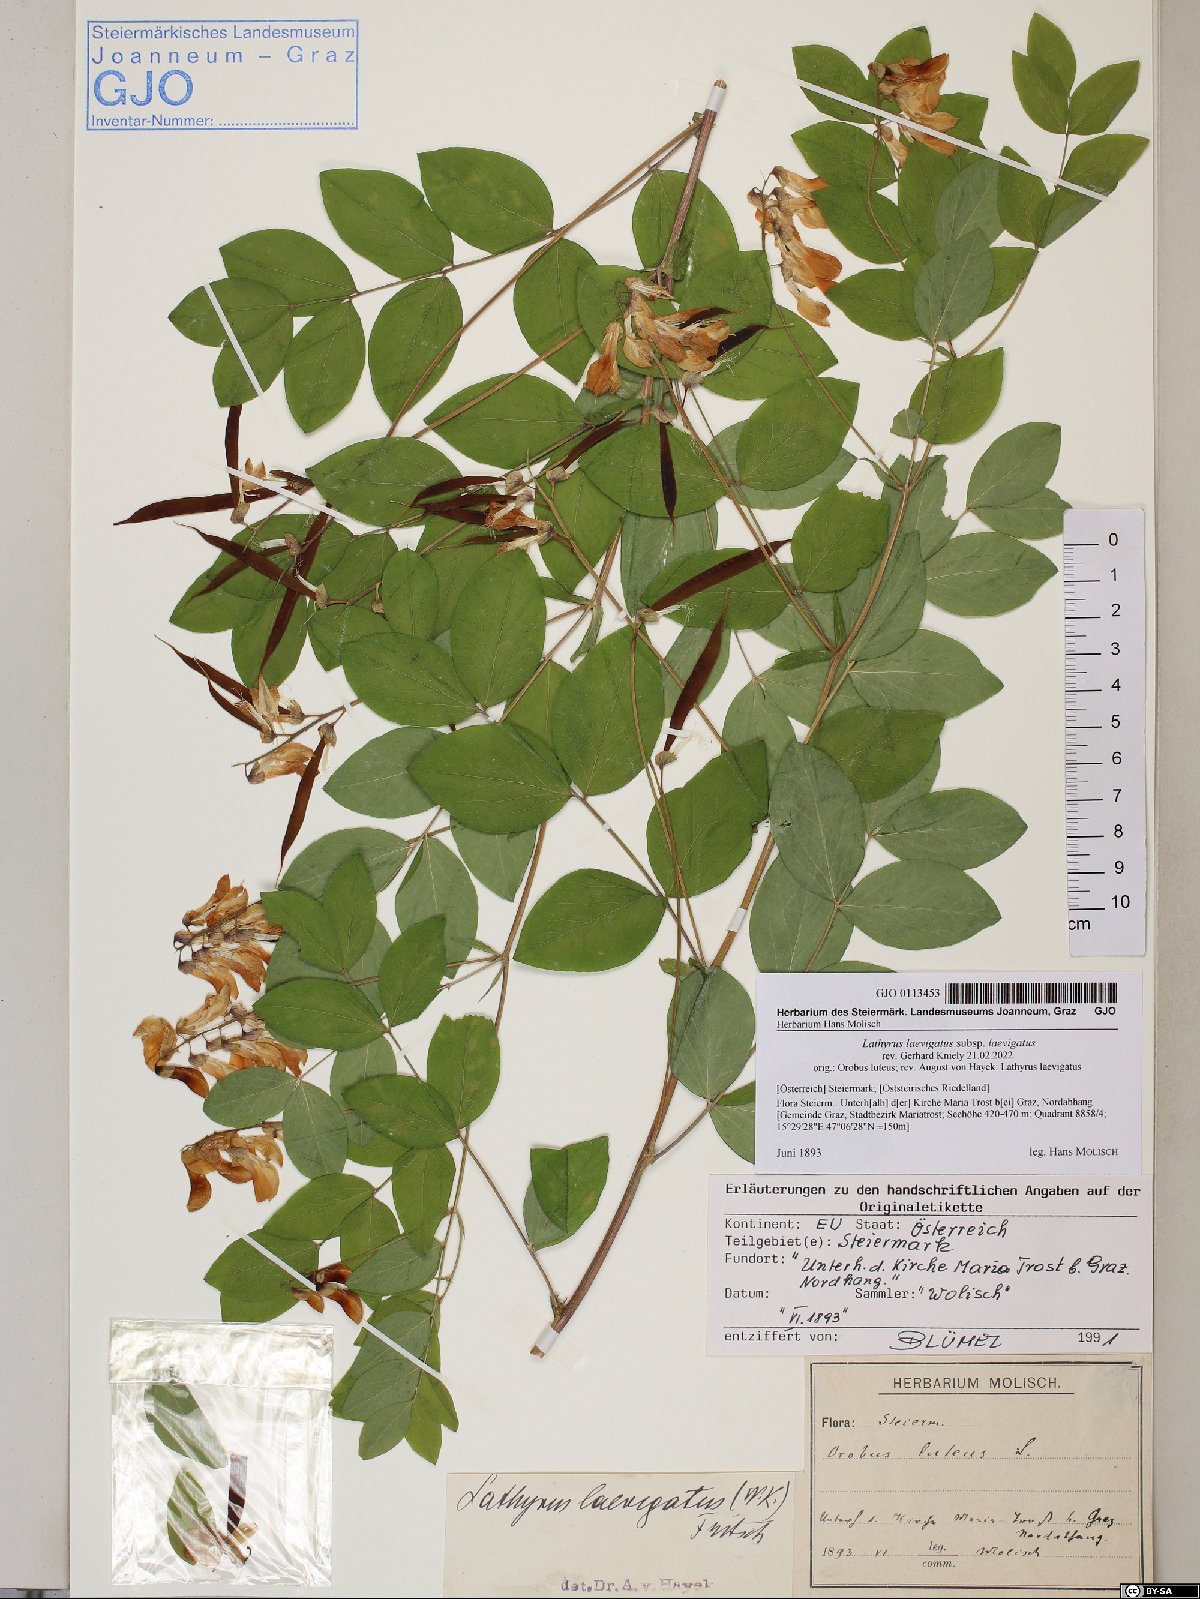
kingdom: Plantae
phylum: Tracheophyta
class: Magnoliopsida
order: Fabales
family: Fabaceae
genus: Lathyrus
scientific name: Lathyrus laevigatus
